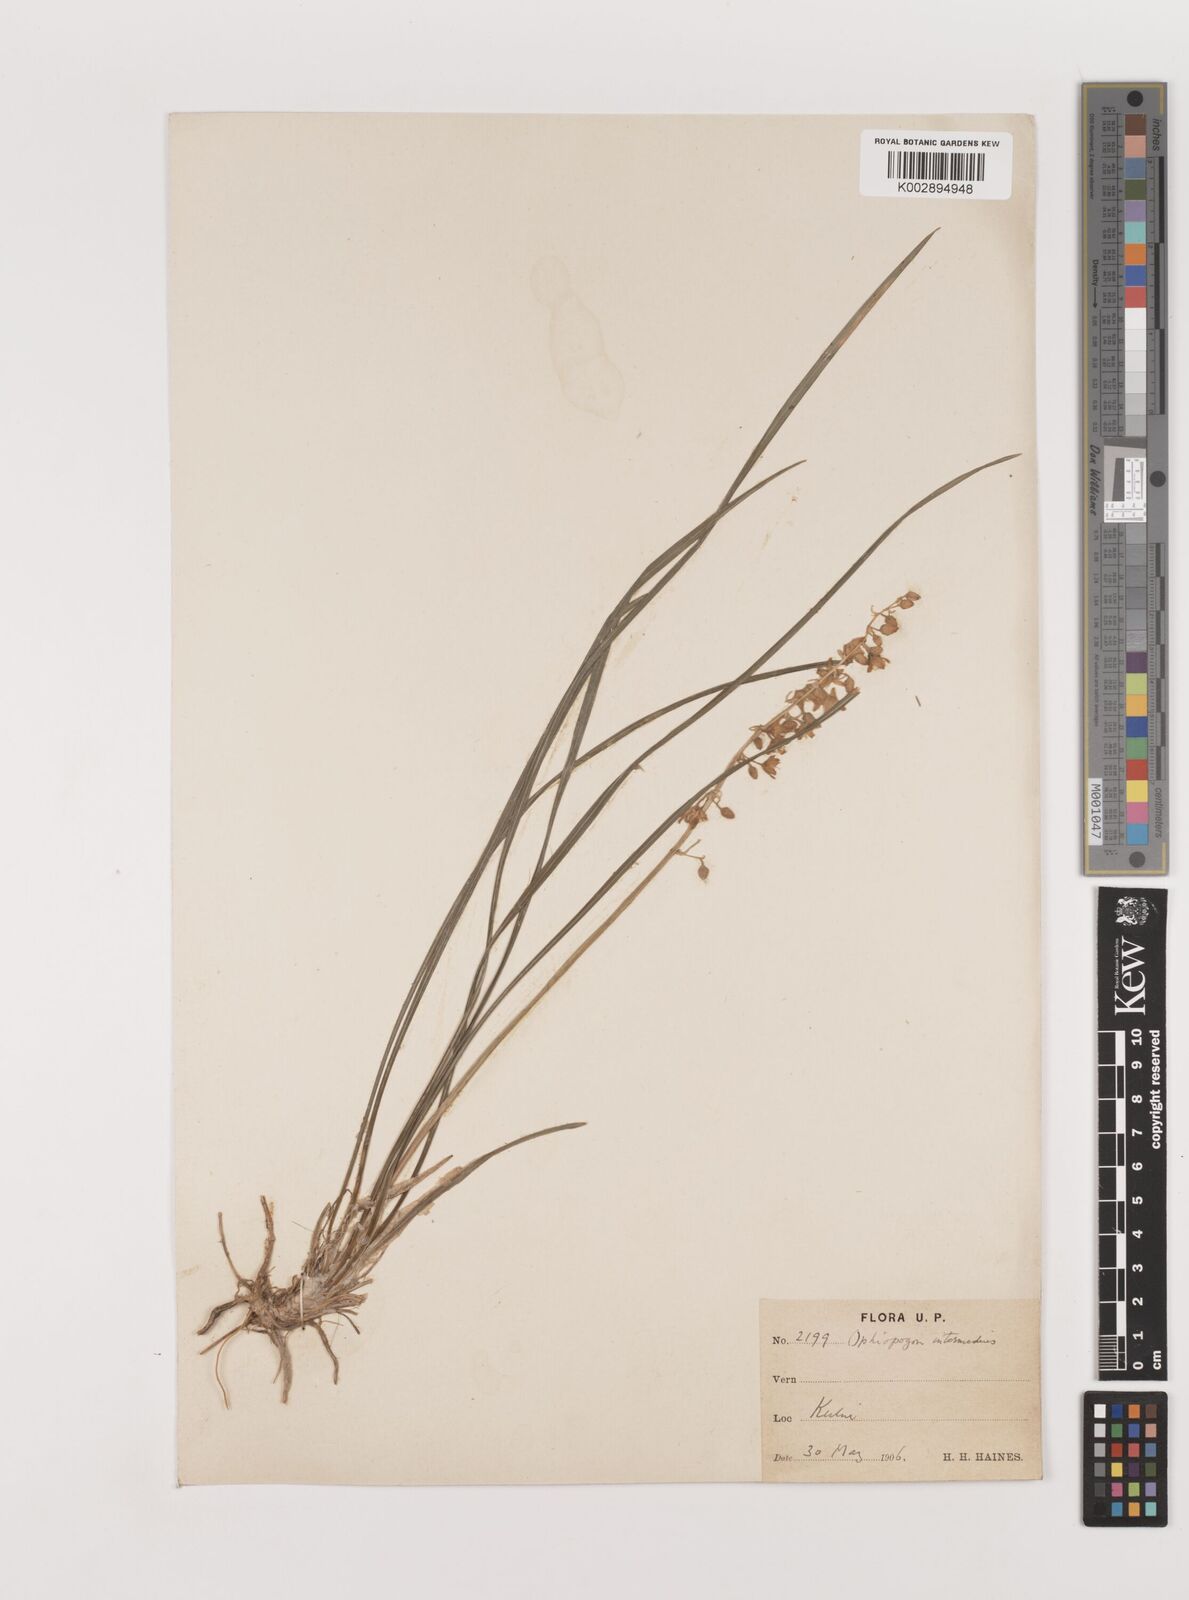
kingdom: Plantae
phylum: Tracheophyta
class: Liliopsida
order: Asparagales
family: Asparagaceae
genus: Ophiopogon
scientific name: Ophiopogon intermedius
